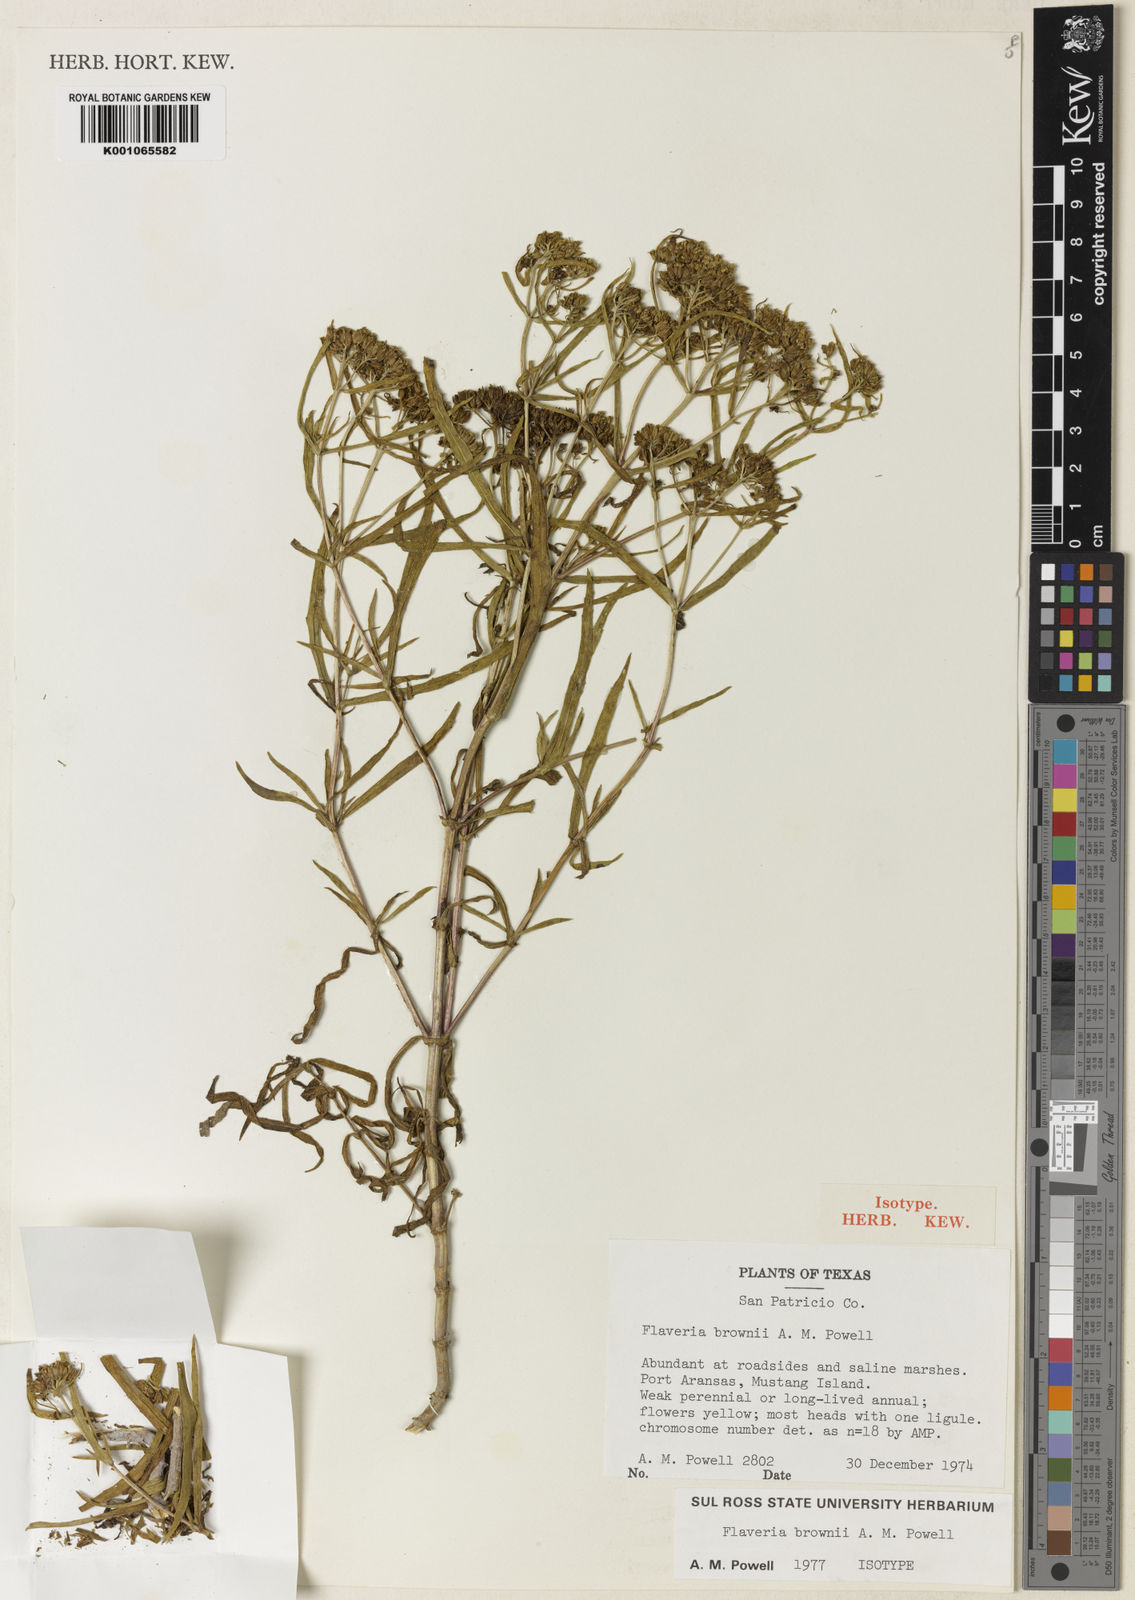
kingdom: Plantae
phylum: Tracheophyta
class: Magnoliopsida
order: Asterales
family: Asteraceae
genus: Flaveria
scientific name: Flaveria brownii
